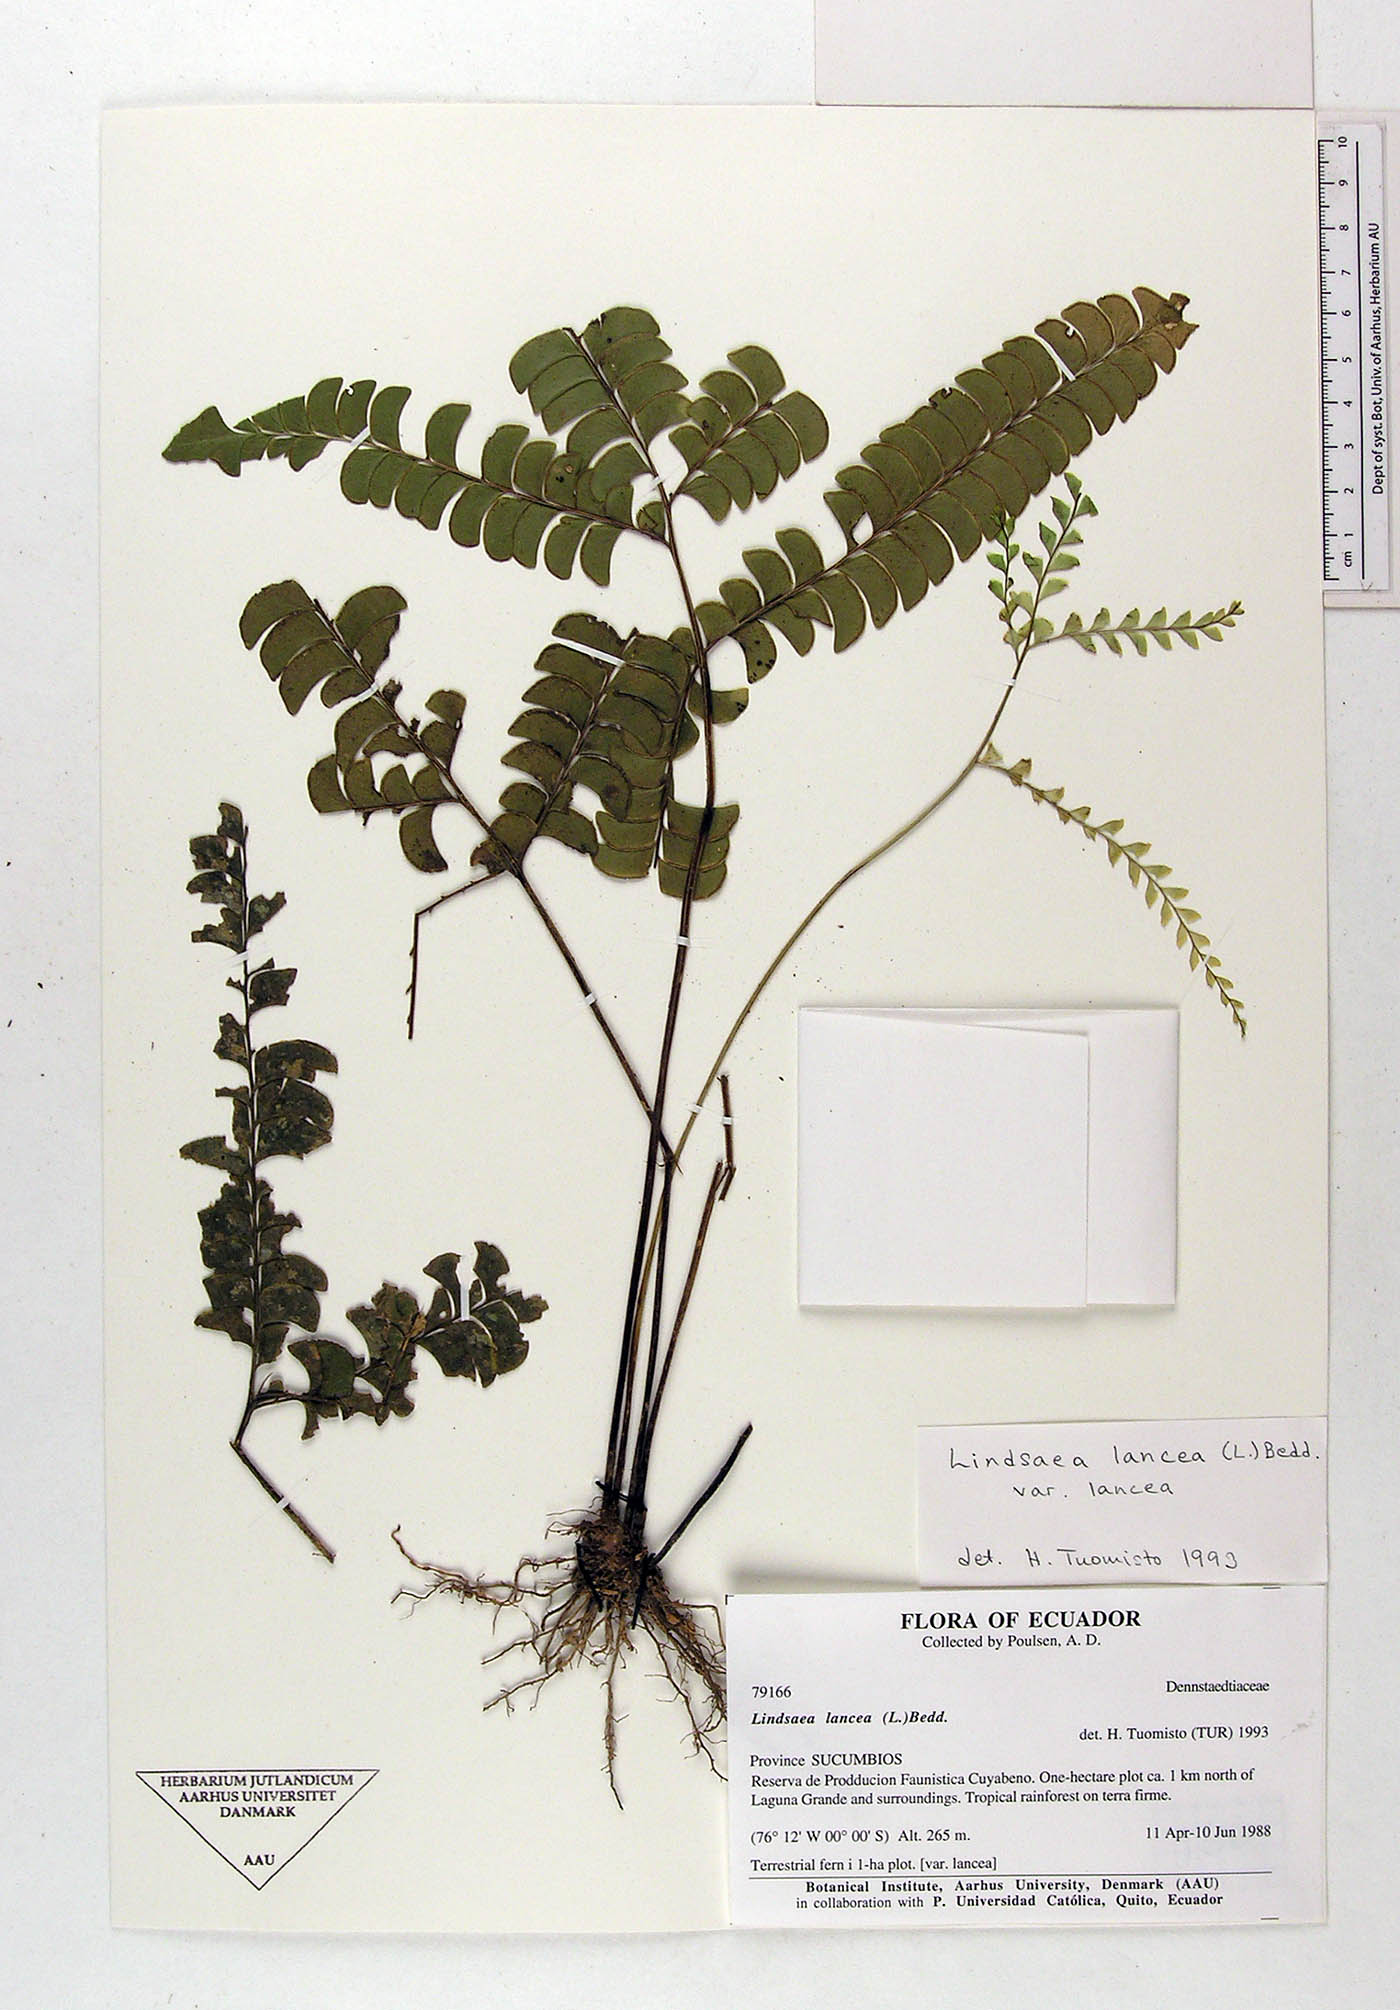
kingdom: Plantae
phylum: Tracheophyta
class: Polypodiopsida
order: Polypodiales
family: Lindsaeaceae
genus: Lindsaea
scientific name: Lindsaea lancea
